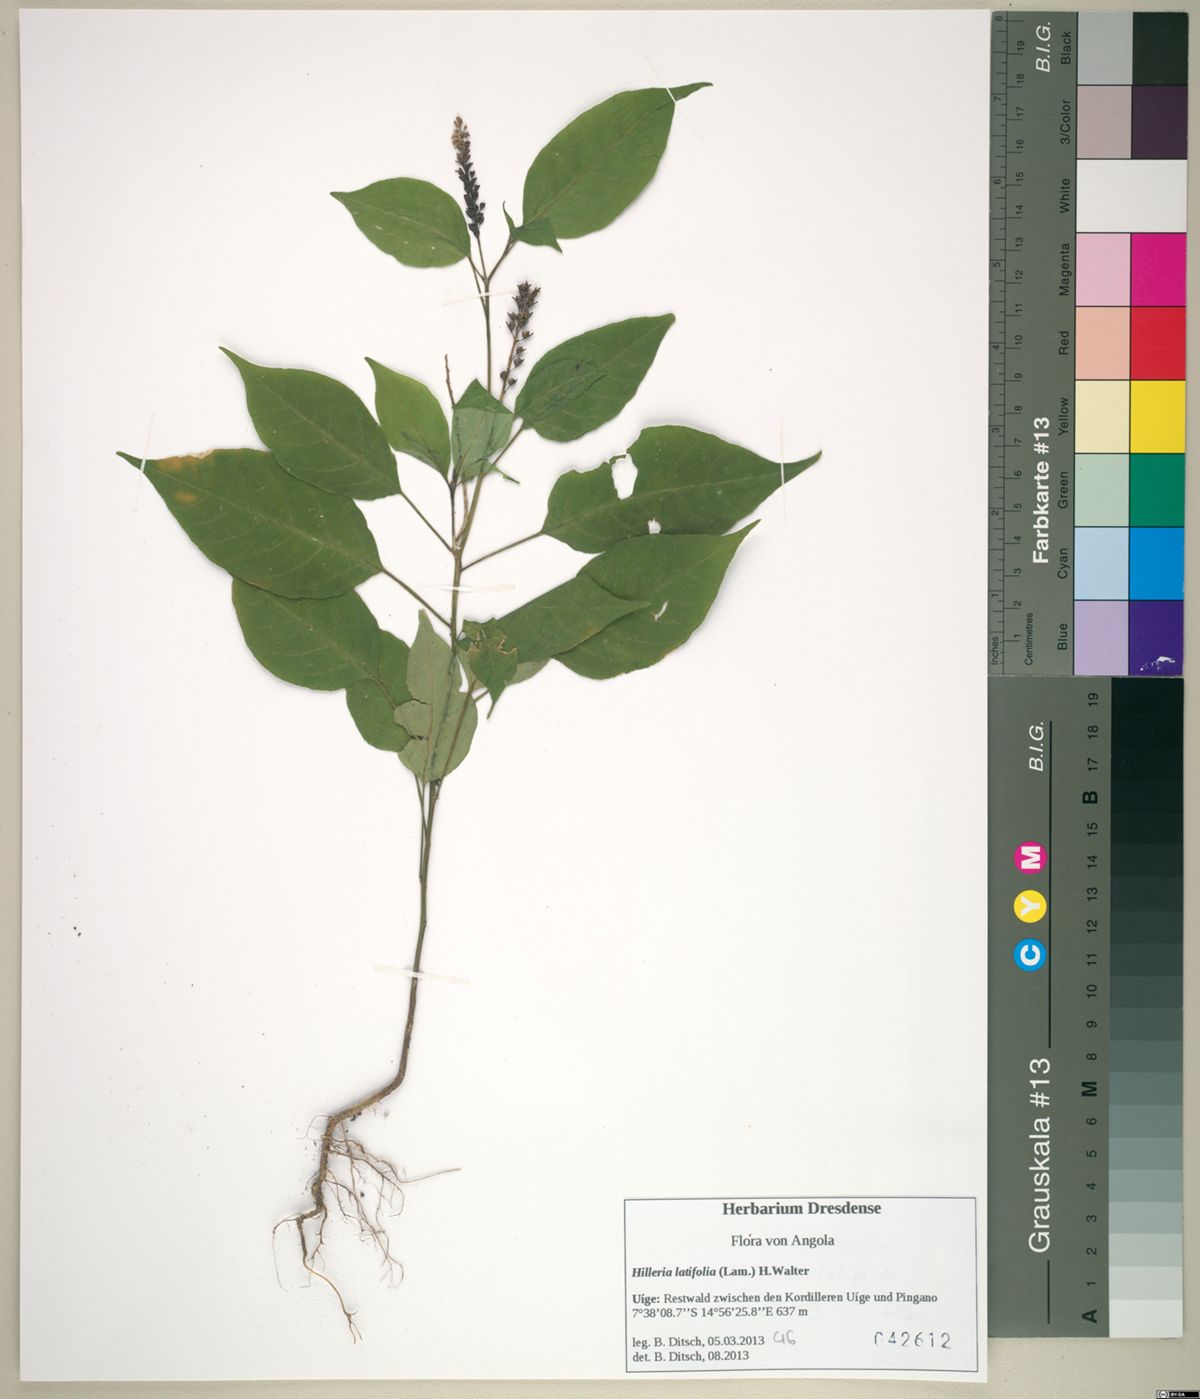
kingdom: Plantae
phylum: Tracheophyta
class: Magnoliopsida
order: Caryophyllales
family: Phytolaccaceae
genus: Hilleria
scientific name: Hilleria latifolia
